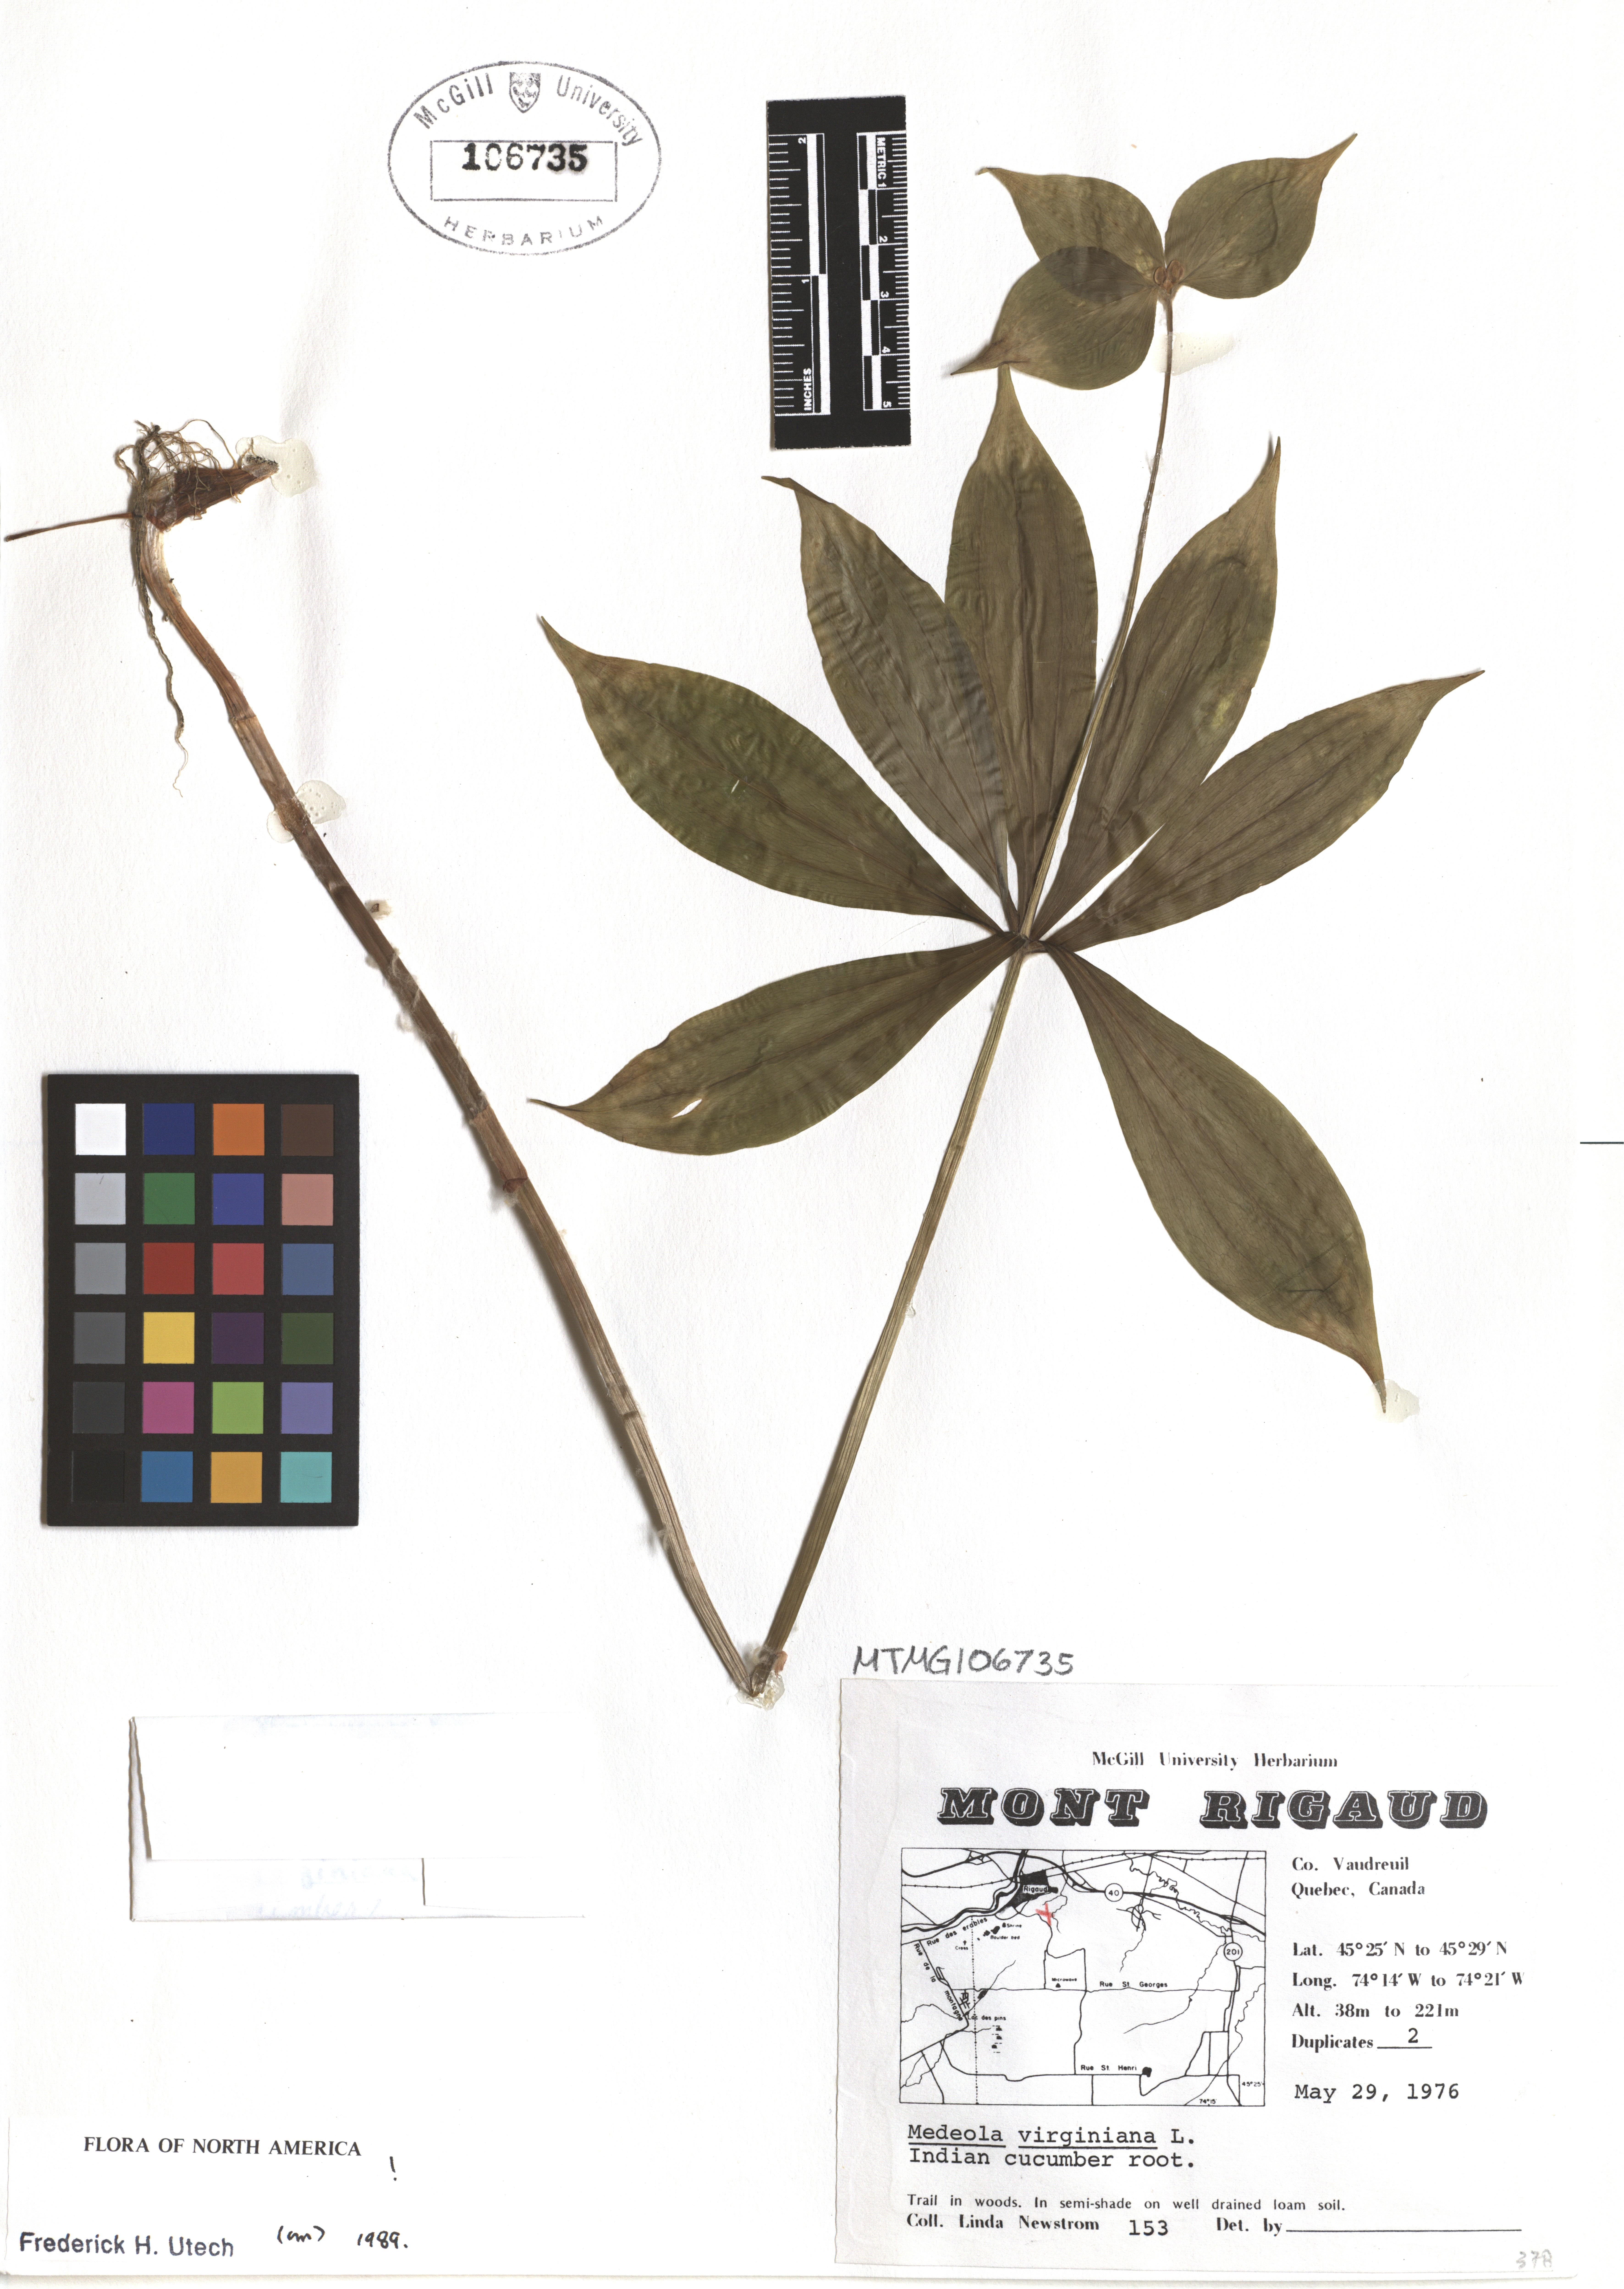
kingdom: Plantae
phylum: Tracheophyta
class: Liliopsida
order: Liliales
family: Liliaceae
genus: Medeola
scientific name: Medeola virginiana
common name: Indian cucumber-root
